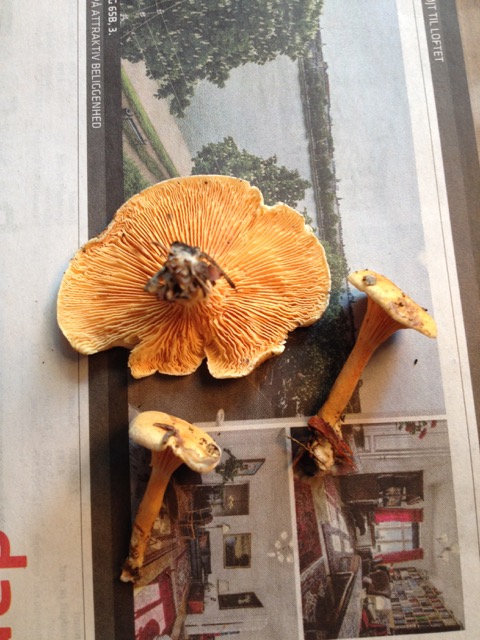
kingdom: Fungi
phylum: Basidiomycota
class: Agaricomycetes
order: Boletales
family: Hygrophoropsidaceae
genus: Hygrophoropsis
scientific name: Hygrophoropsis aurantiaca
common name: almindelig orangekantarel
